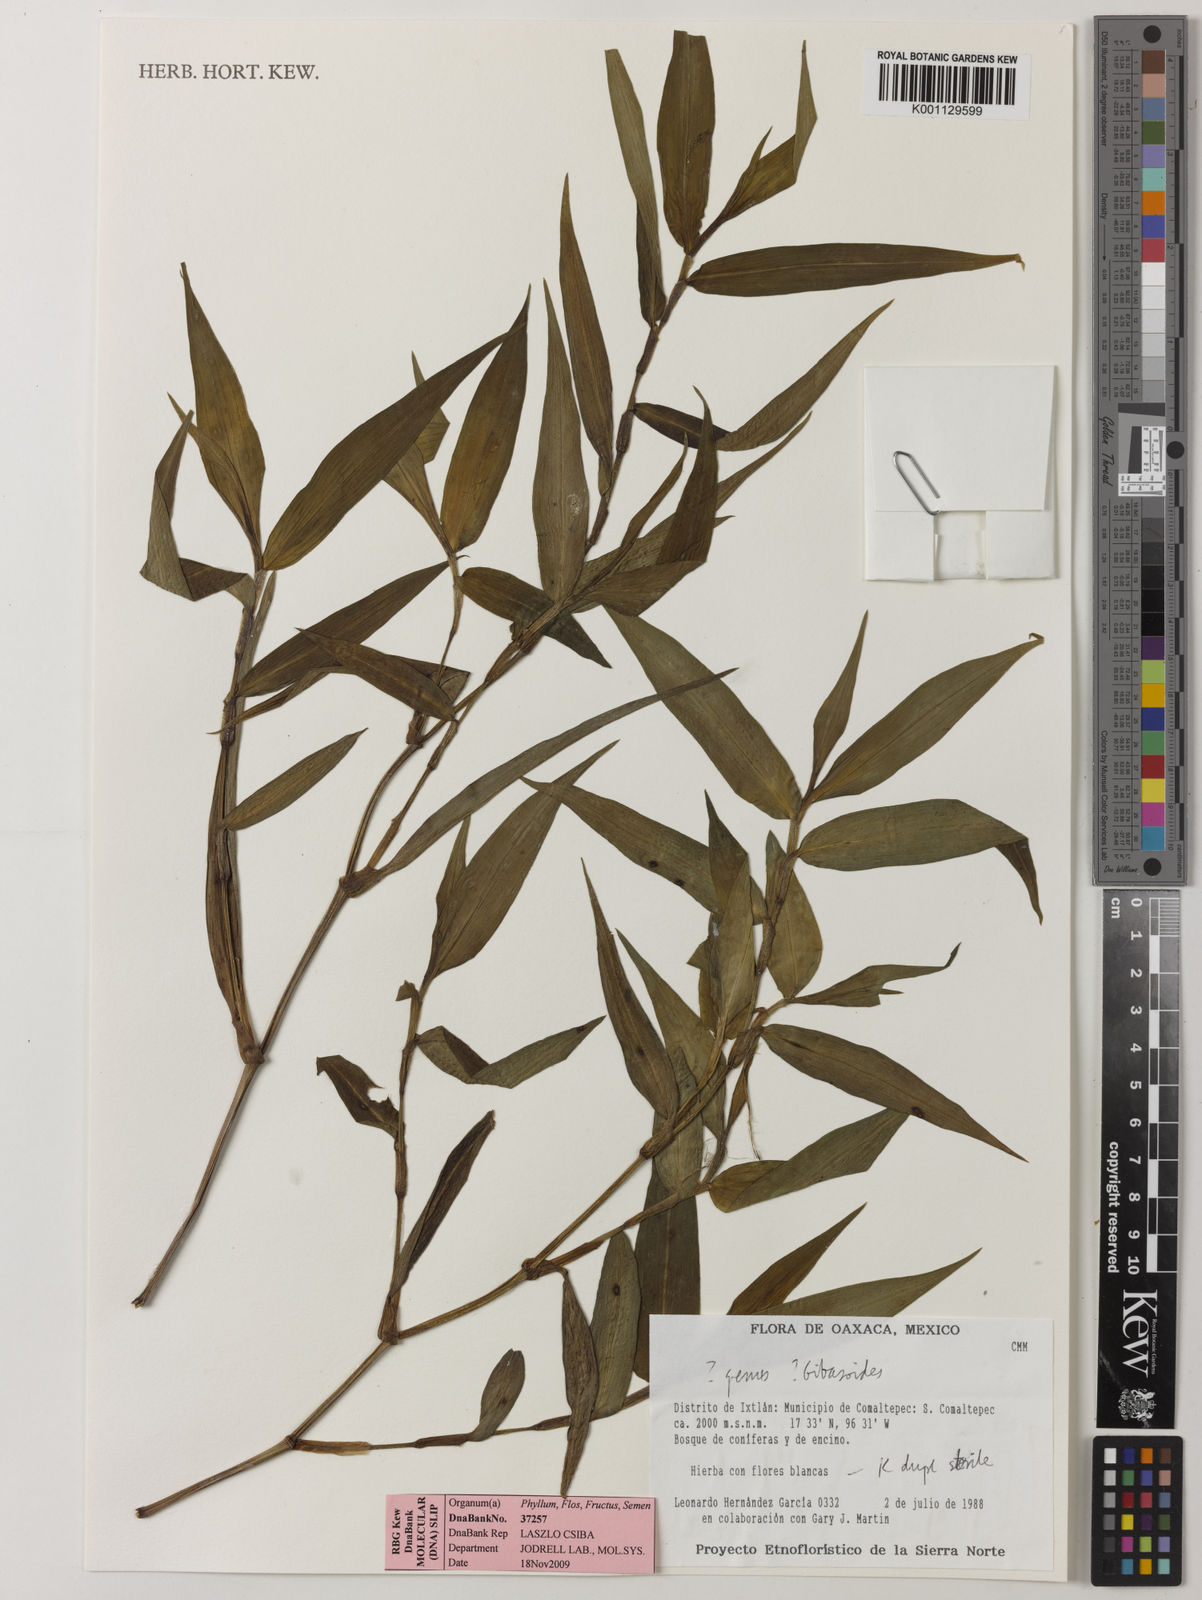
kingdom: Plantae
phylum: Tracheophyta
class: Liliopsida
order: Commelinales
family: Commelinaceae
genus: Thyrsanthemum
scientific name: Thyrsanthemum
